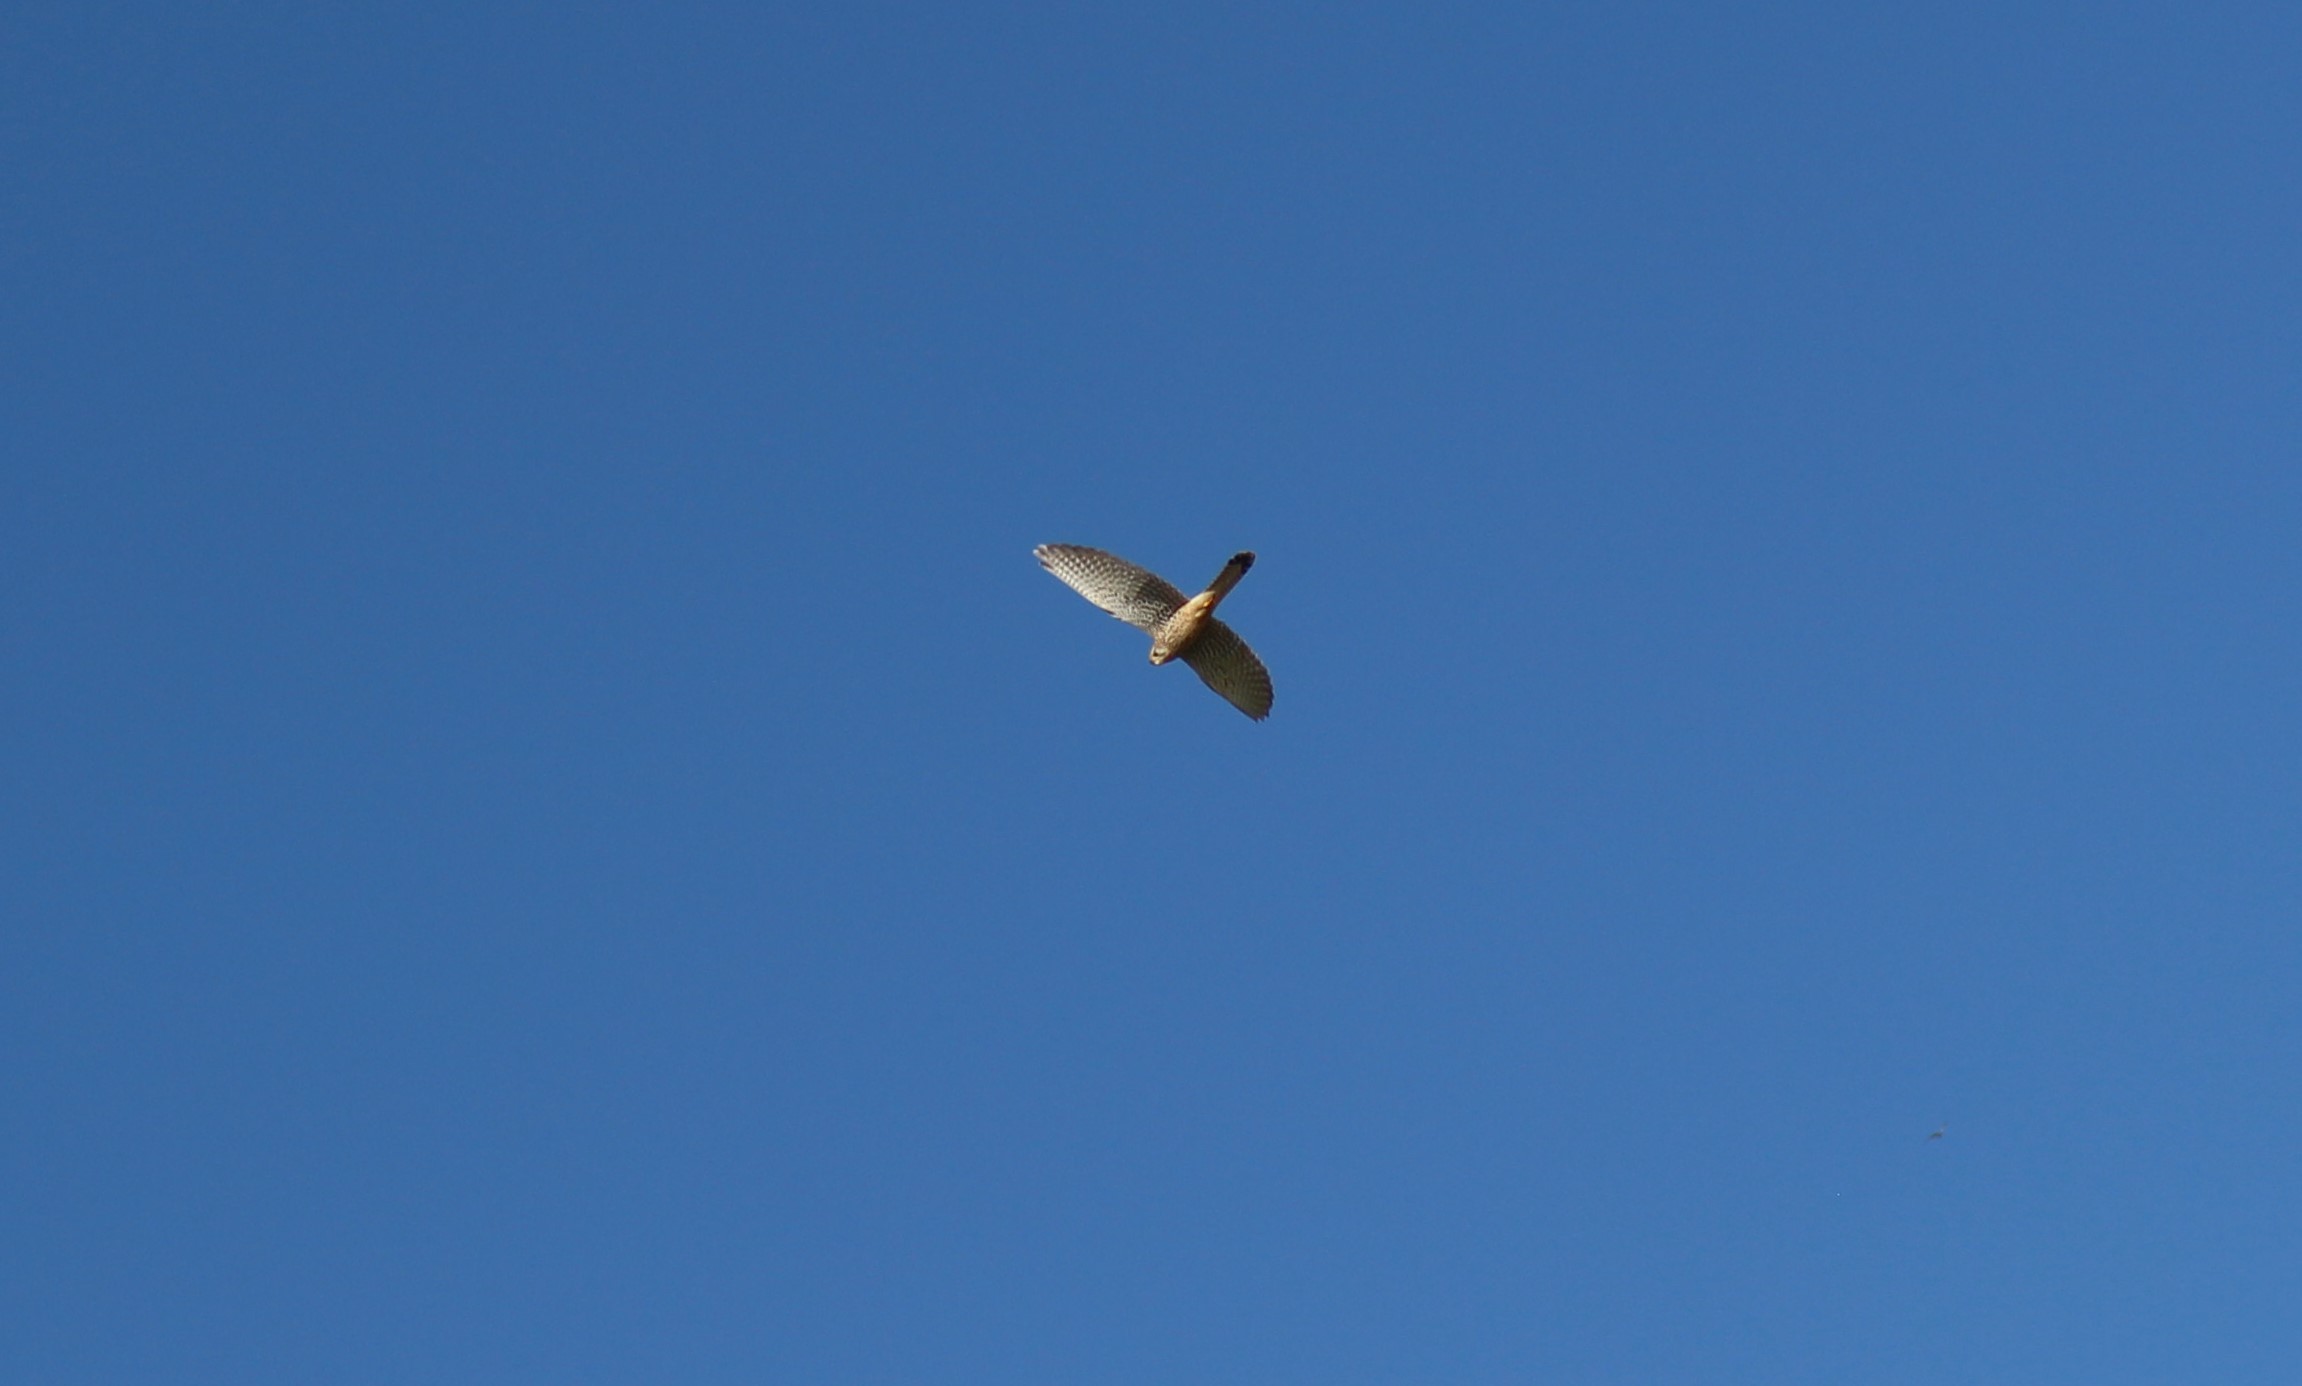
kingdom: Animalia
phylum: Chordata
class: Aves
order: Falconiformes
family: Falconidae
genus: Falco
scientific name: Falco tinnunculus
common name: Tårnfalk
